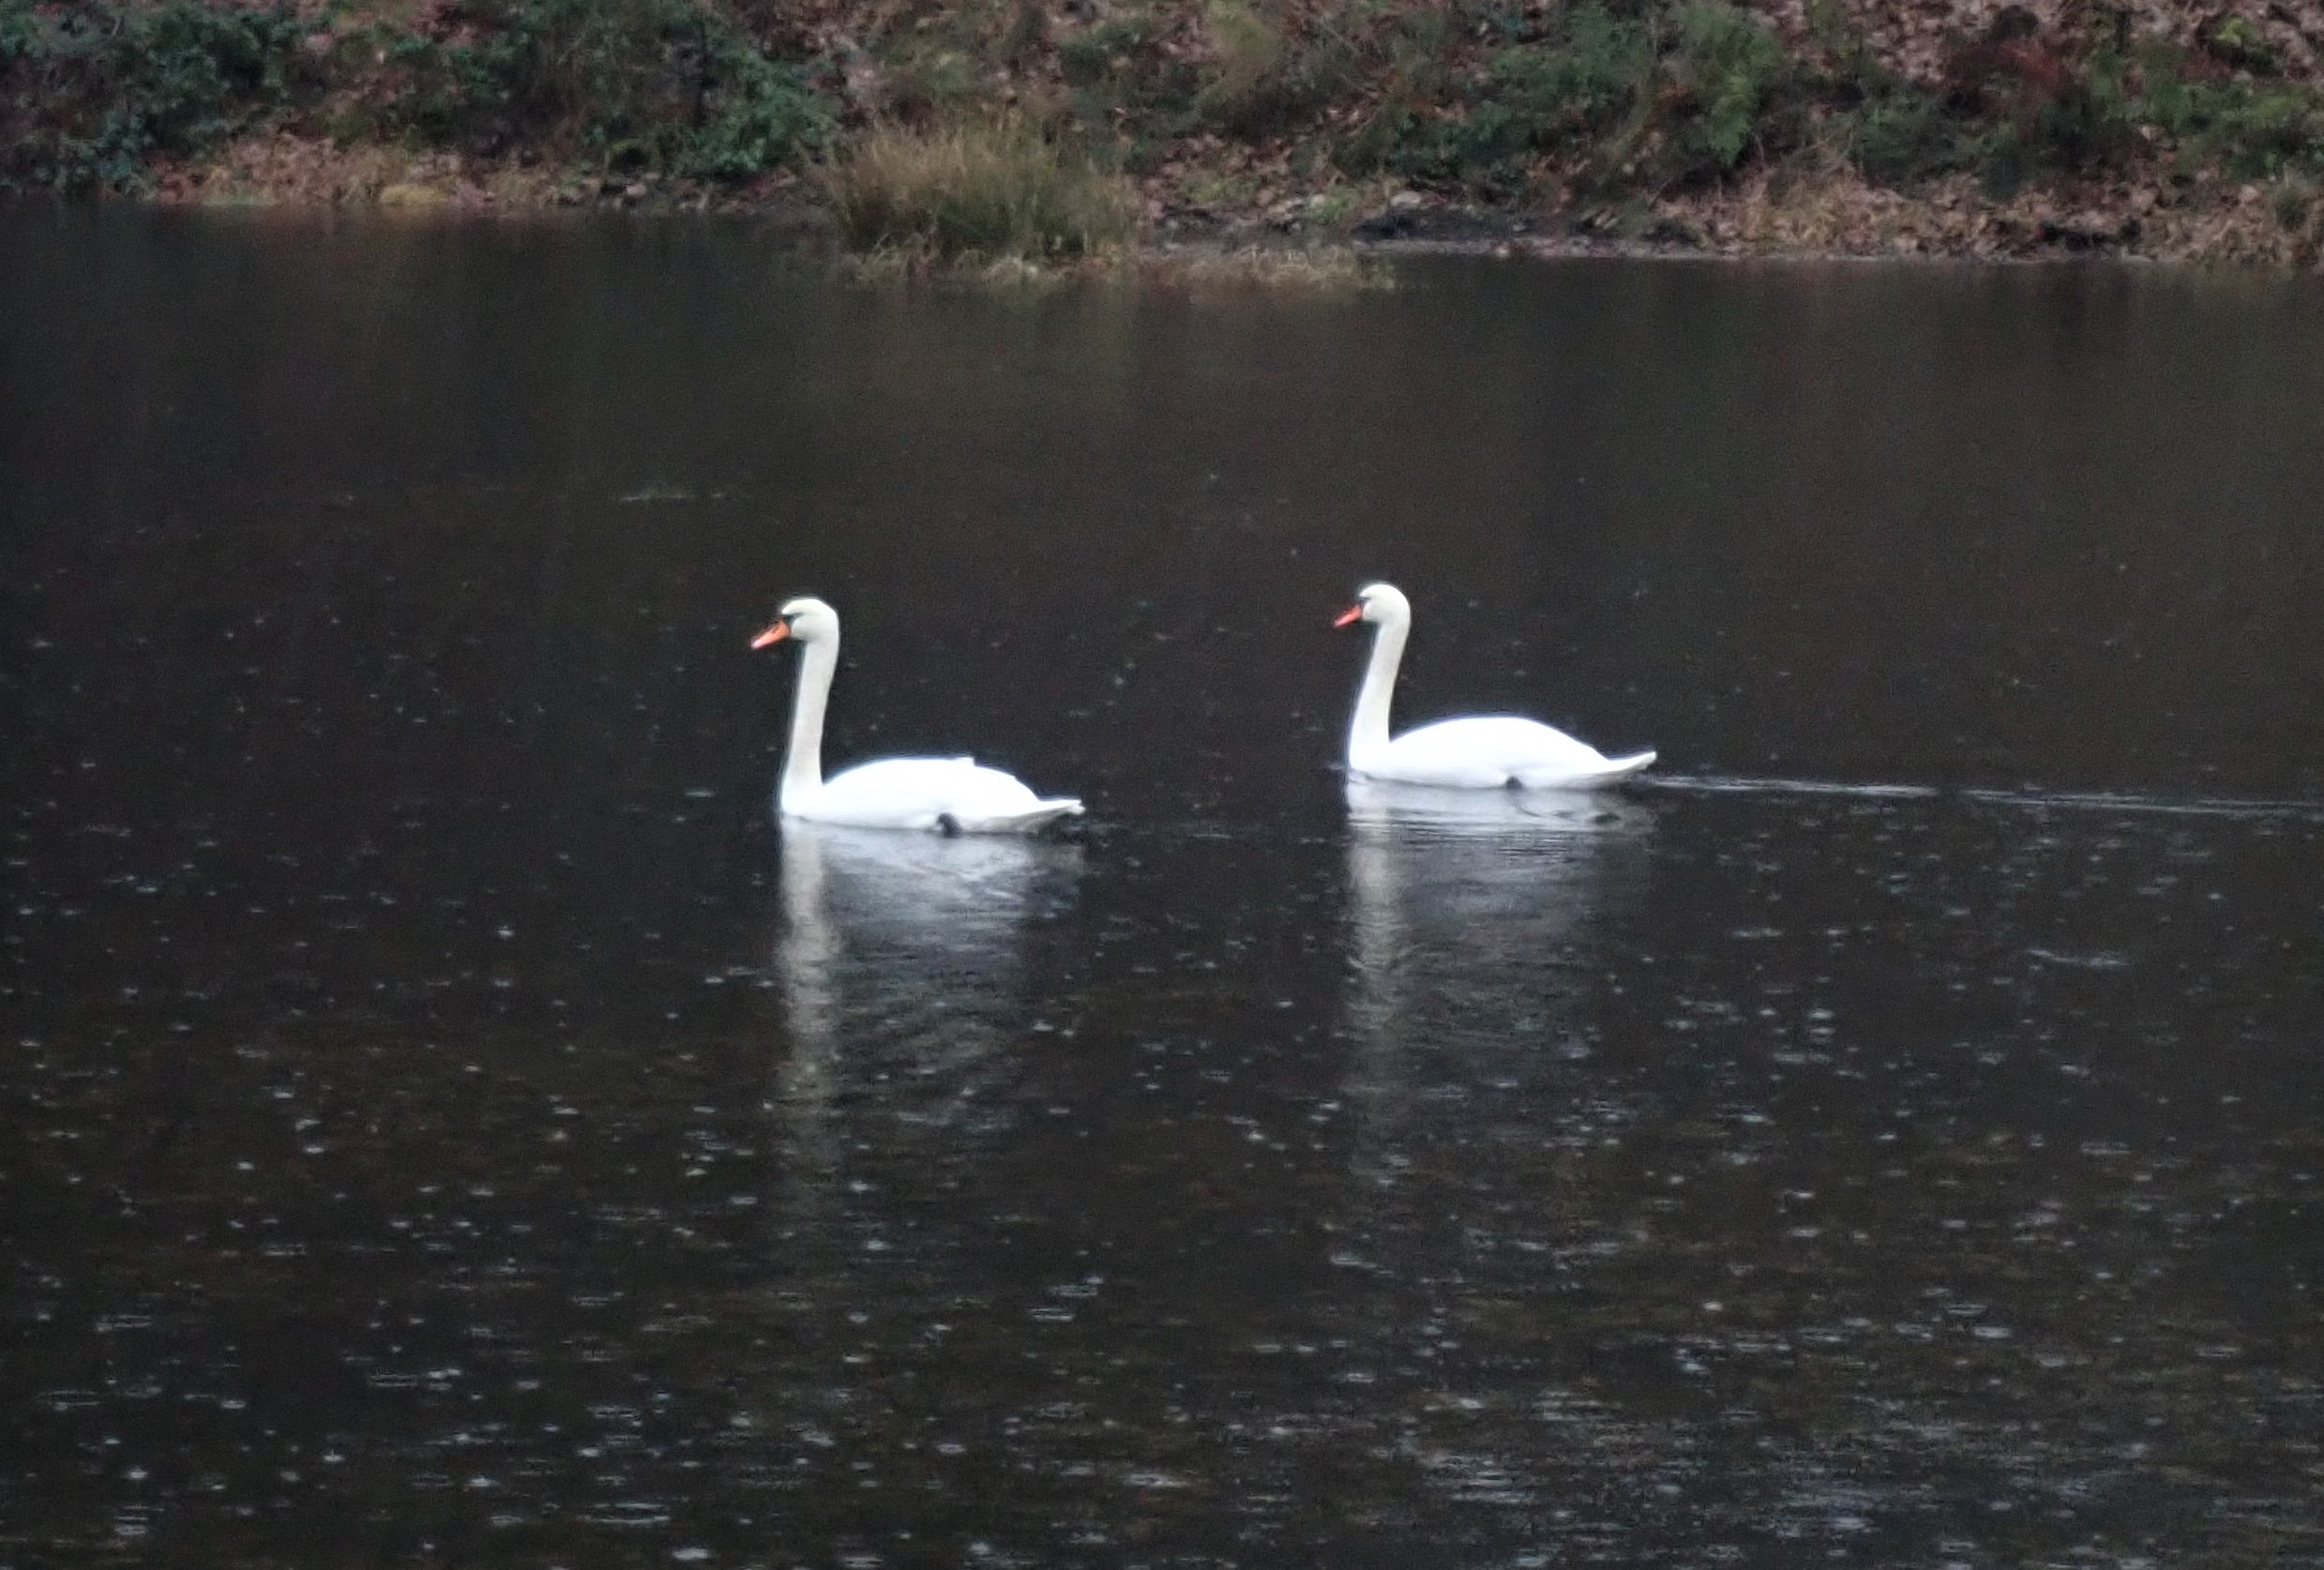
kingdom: Animalia
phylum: Chordata
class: Aves
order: Anseriformes
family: Anatidae
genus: Cygnus
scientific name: Cygnus olor
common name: Knopsvane
